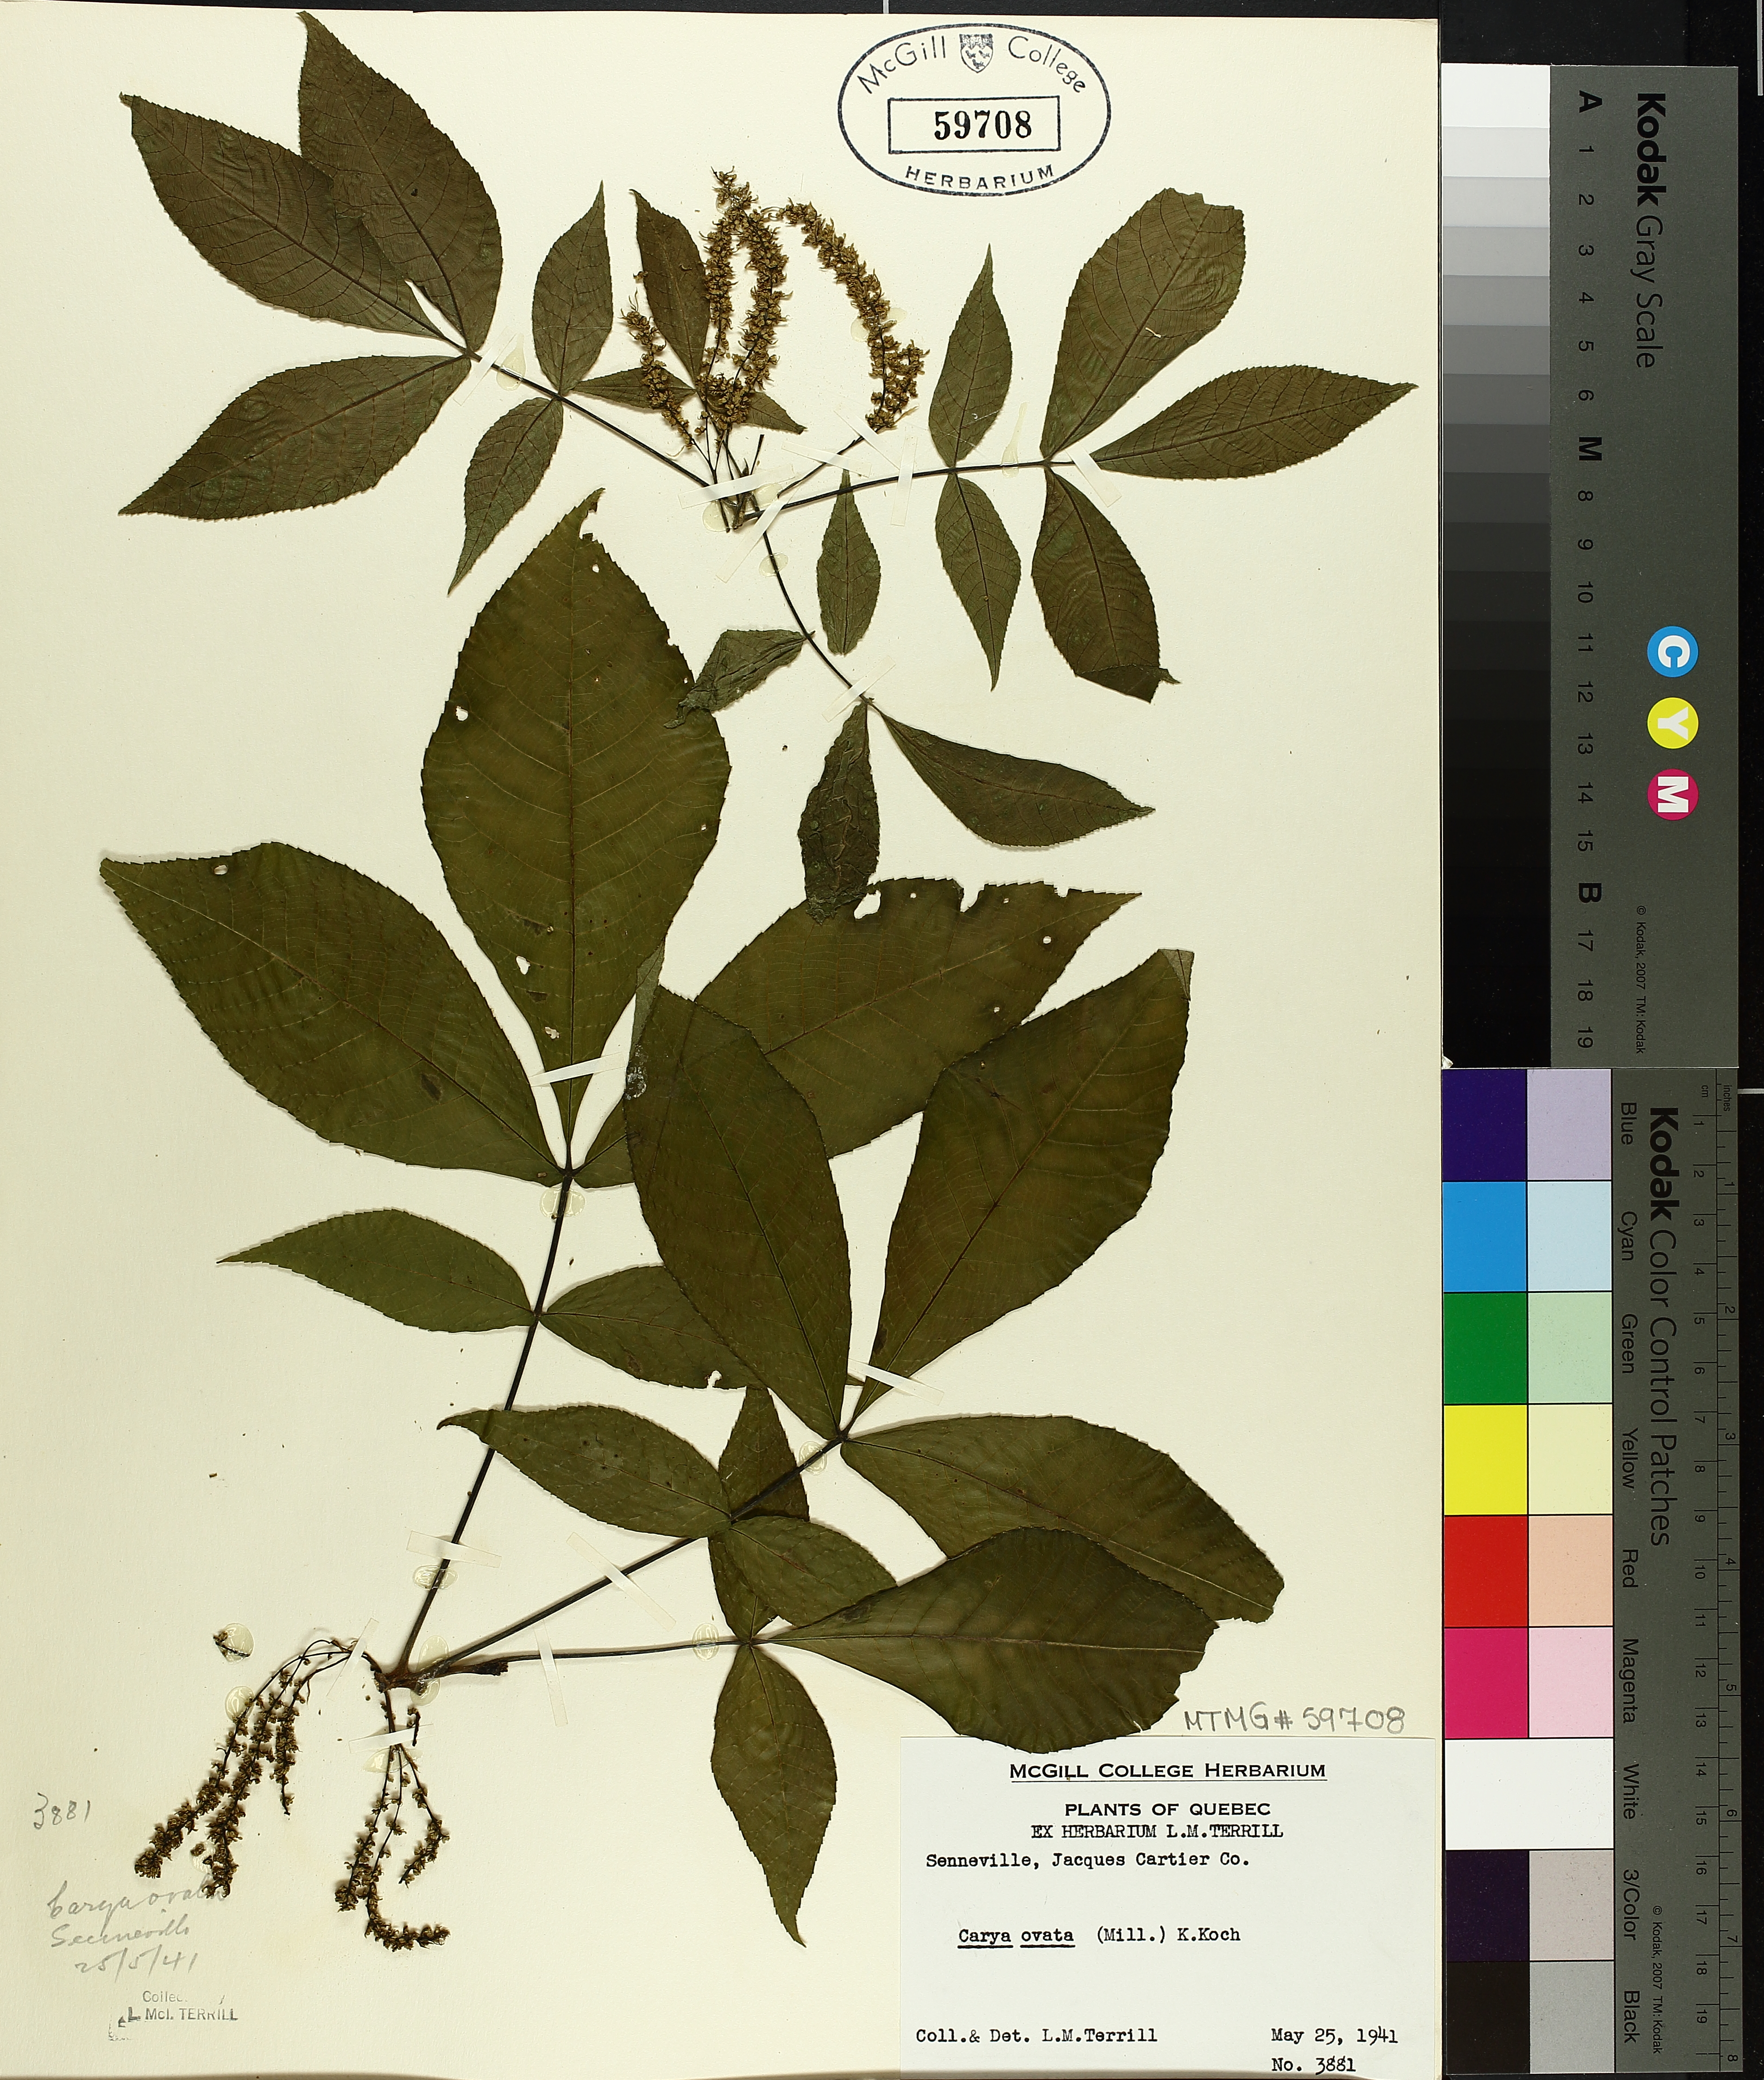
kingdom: Plantae
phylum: Tracheophyta
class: Magnoliopsida
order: Fagales
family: Juglandaceae
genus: Carya
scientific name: Carya ovata
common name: Shagbark hickory
